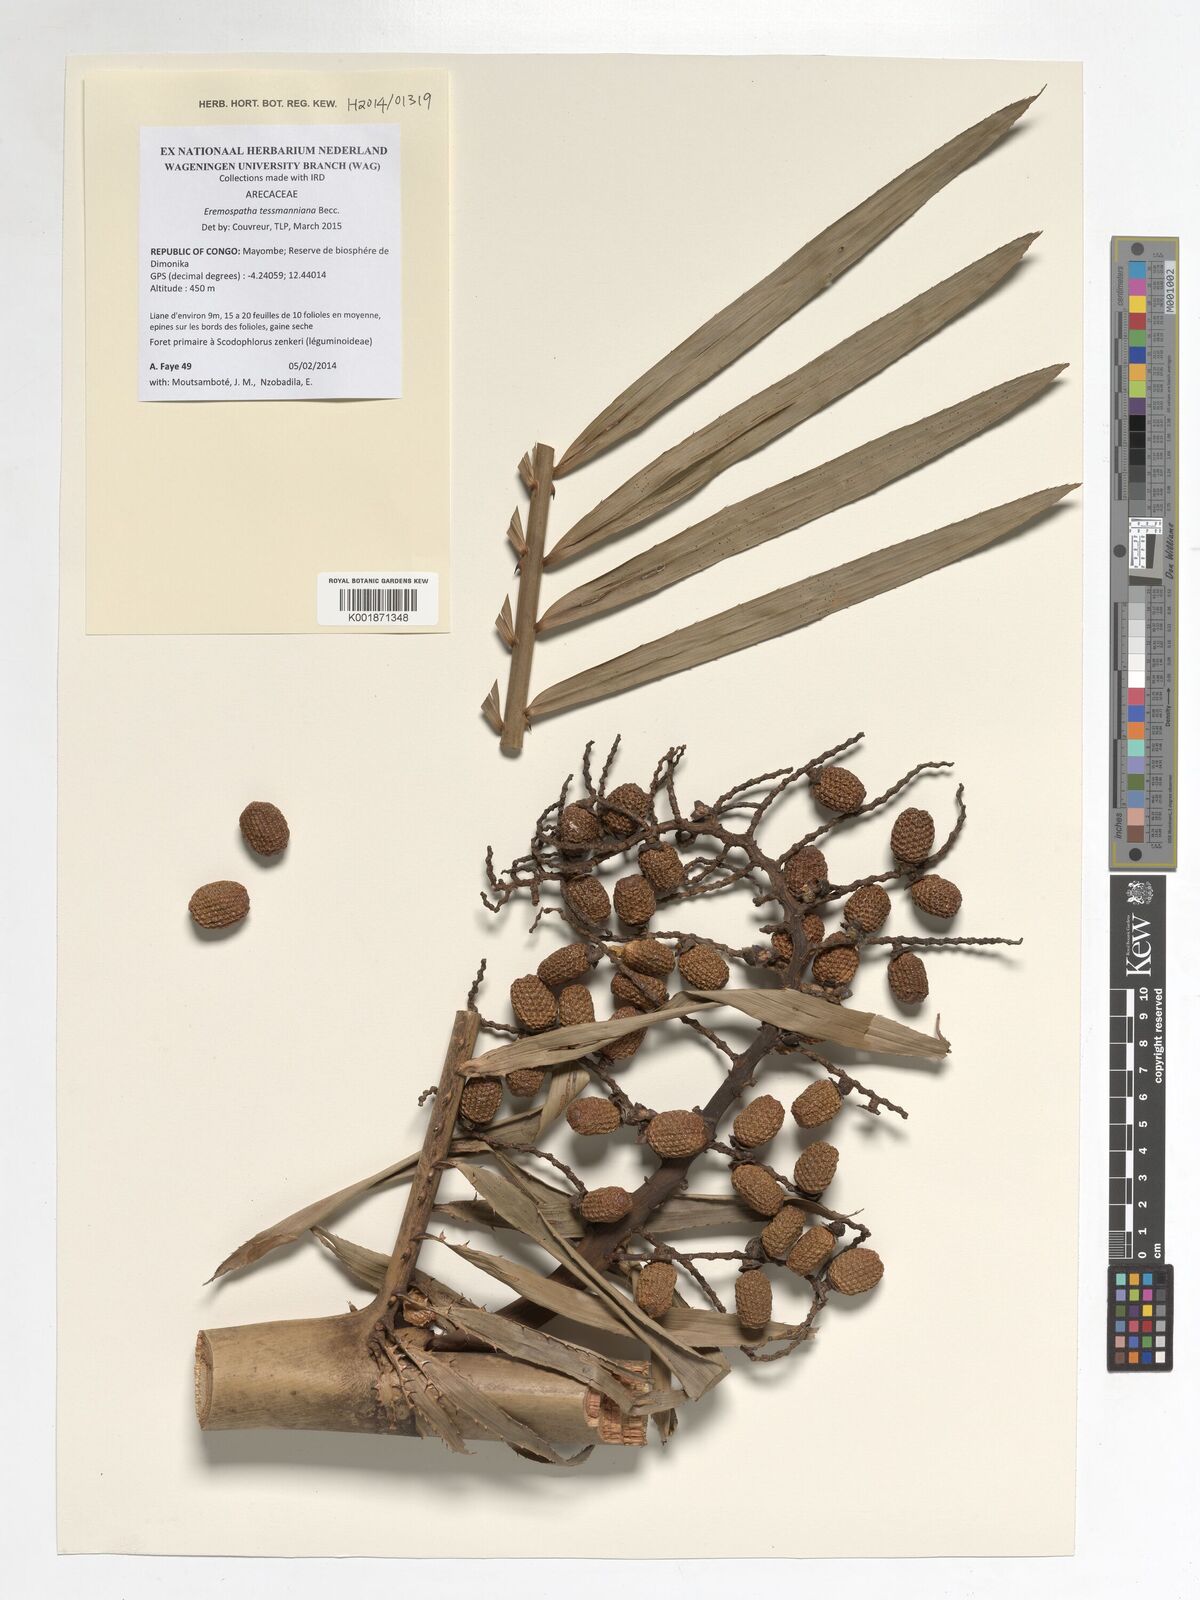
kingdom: Plantae
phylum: Tracheophyta
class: Liliopsida
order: Arecales
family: Arecaceae
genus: Eremospatha
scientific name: Eremospatha tessmanniana
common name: Rattan
